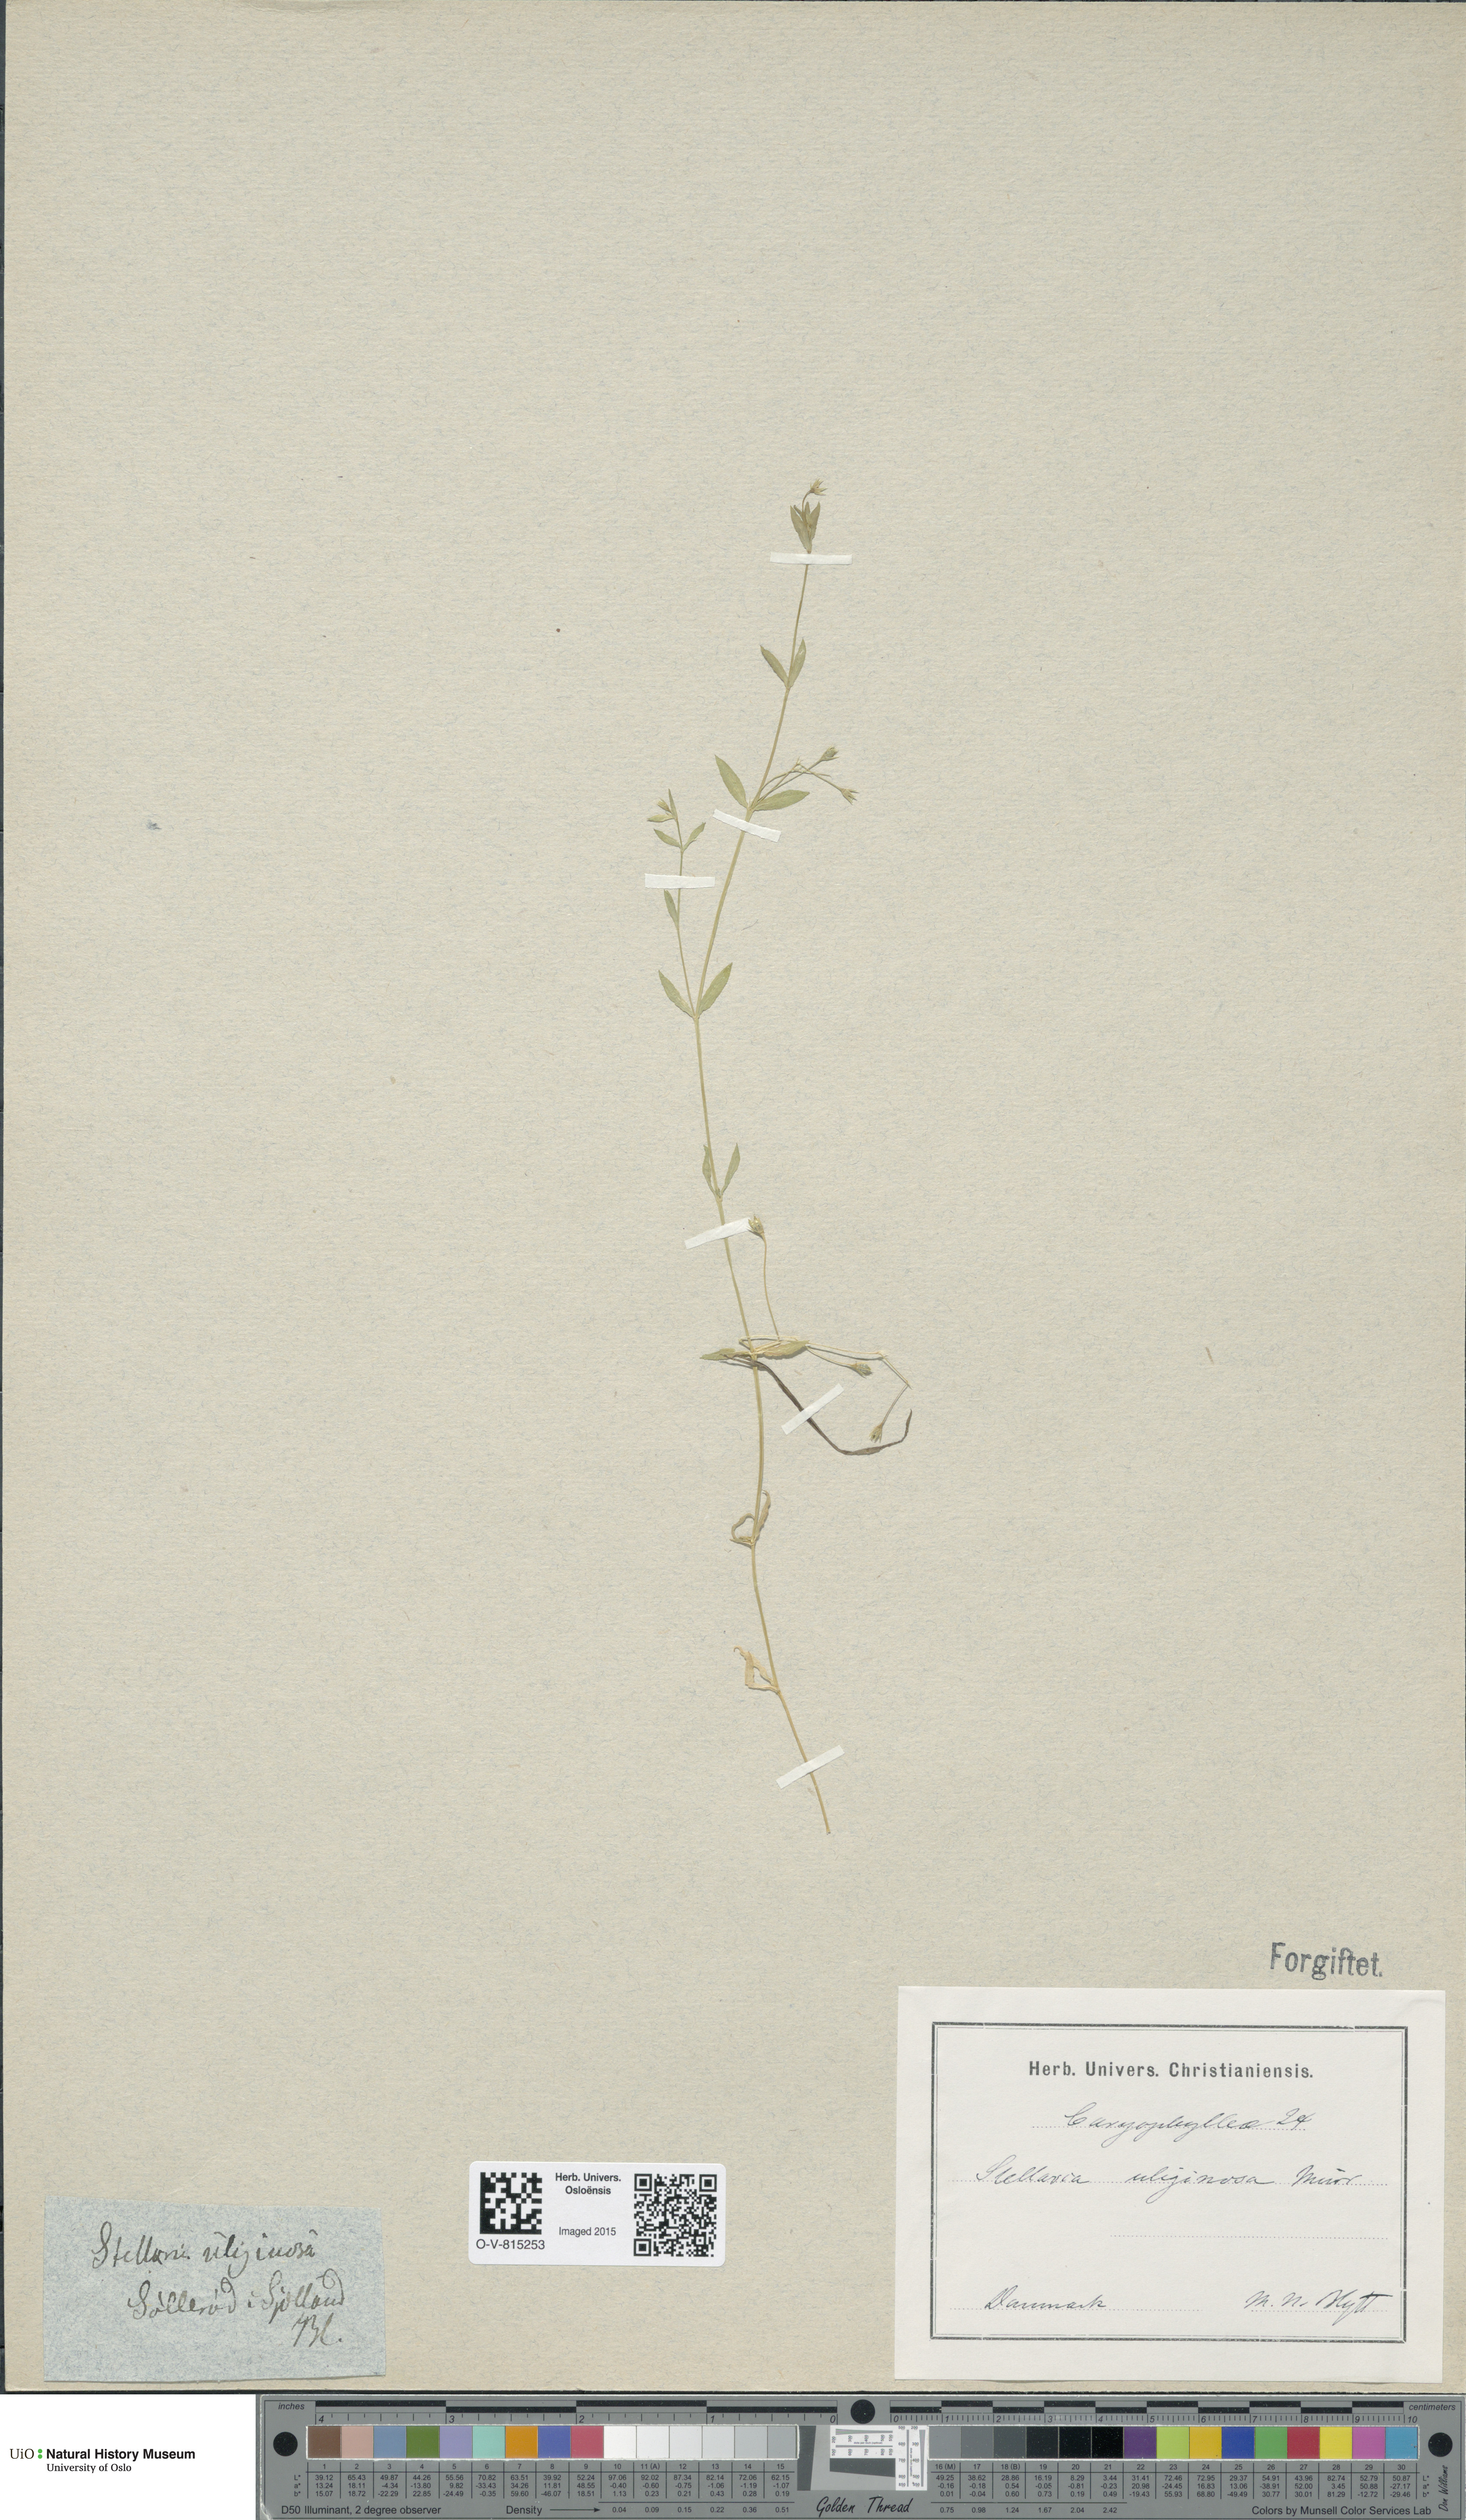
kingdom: Plantae
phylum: Tracheophyta
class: Magnoliopsida
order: Caryophyllales
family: Caryophyllaceae
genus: Stellaria
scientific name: Stellaria alsine
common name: Bog stitchwort
